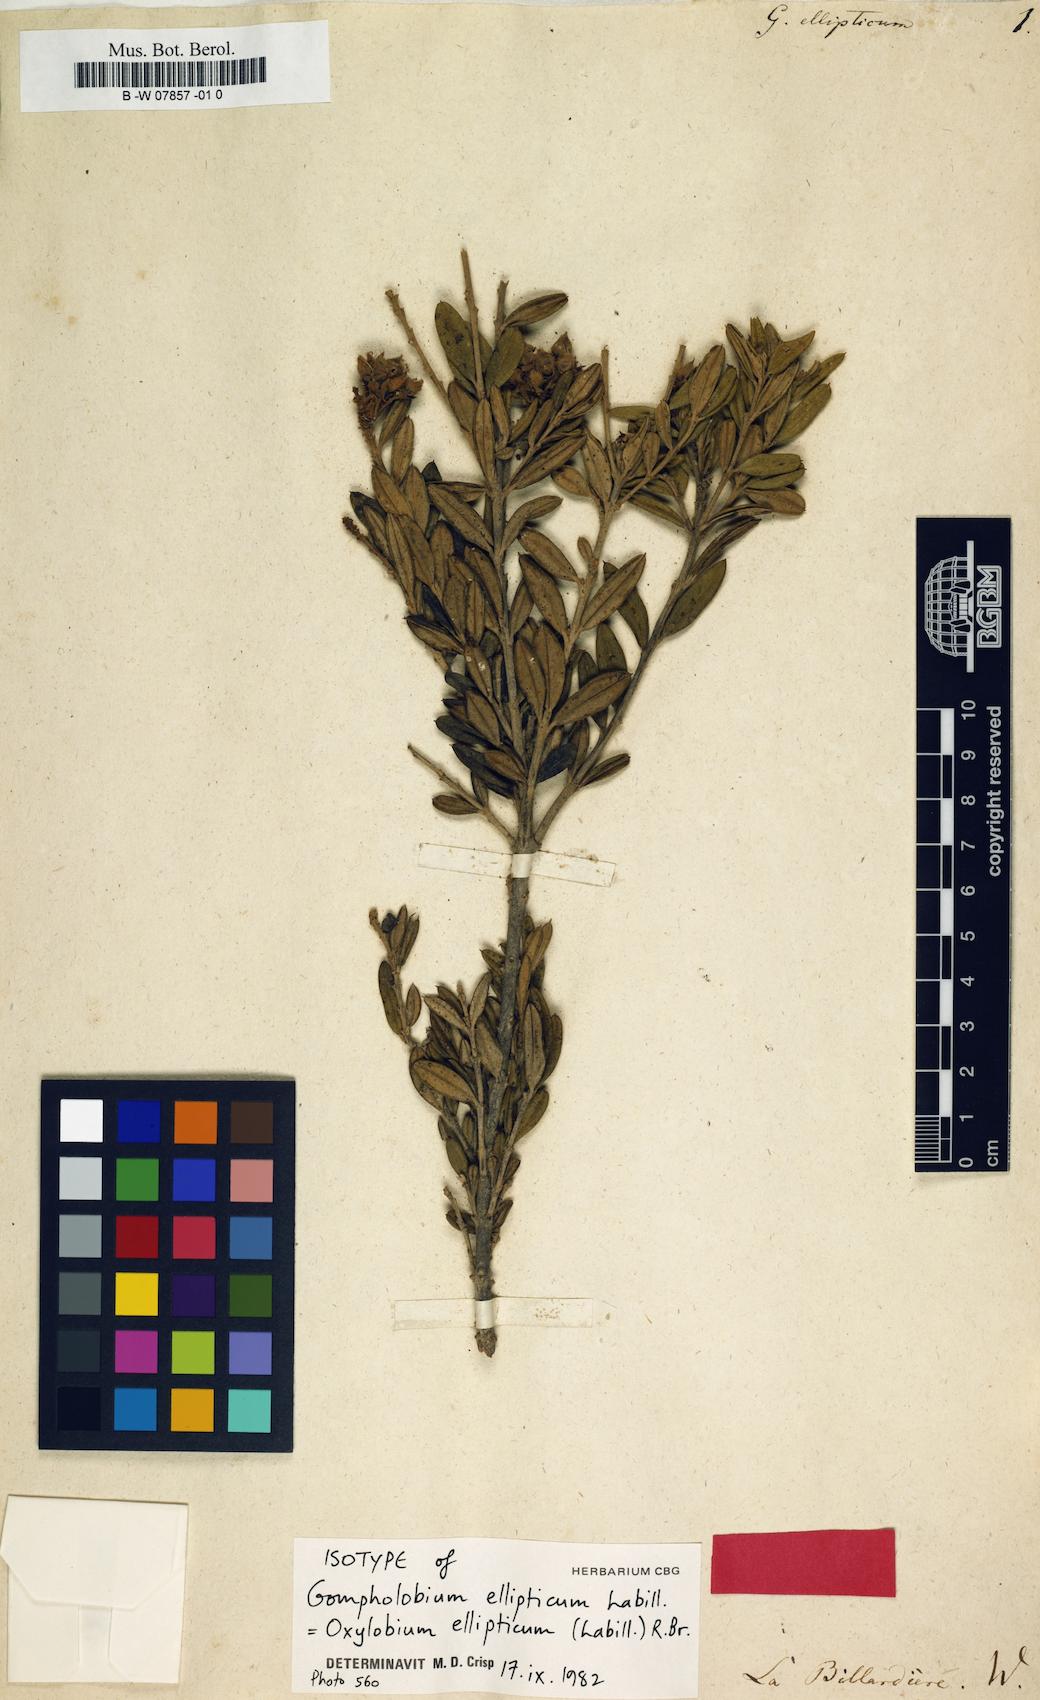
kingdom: Plantae
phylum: Tracheophyta
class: Magnoliopsida
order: Fabales
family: Fabaceae
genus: Oxylobium
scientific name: Oxylobium ellipticum
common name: Golden shaggy-pea
